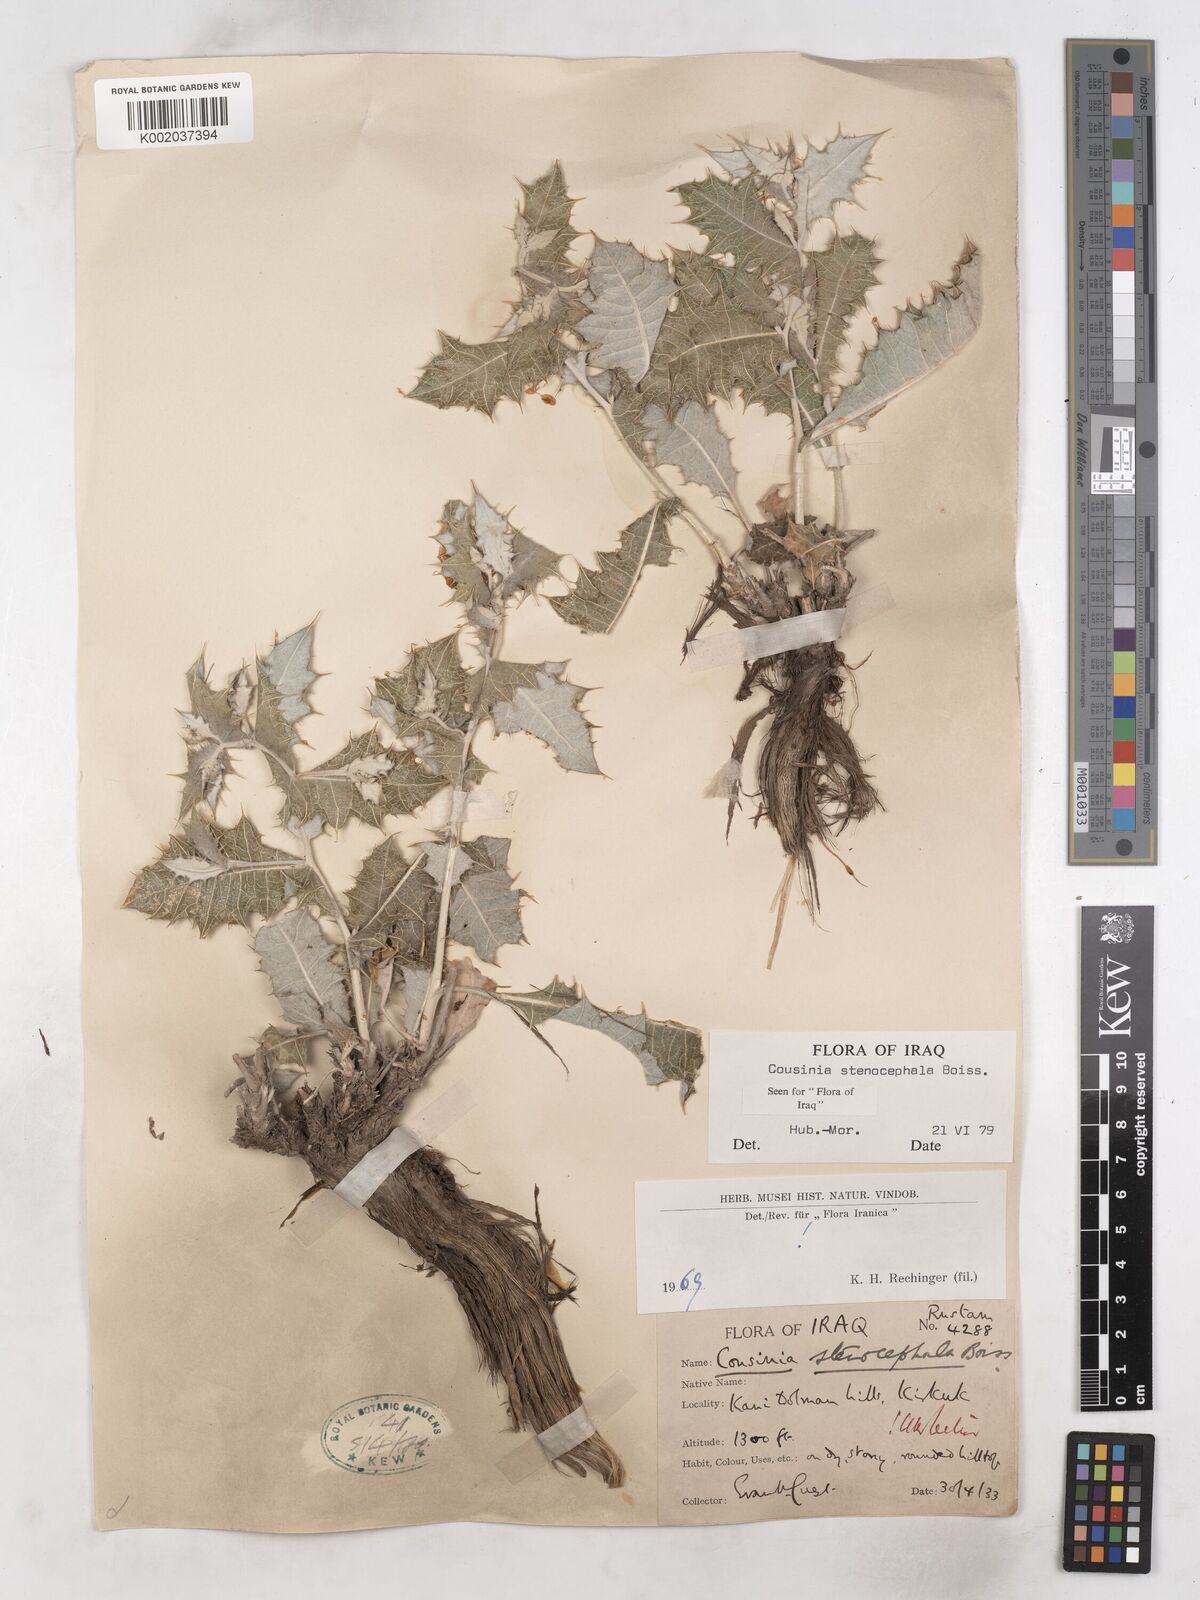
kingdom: Plantae
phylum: Tracheophyta
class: Magnoliopsida
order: Asterales
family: Asteraceae
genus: Cousinia
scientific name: Cousinia stenocephala
